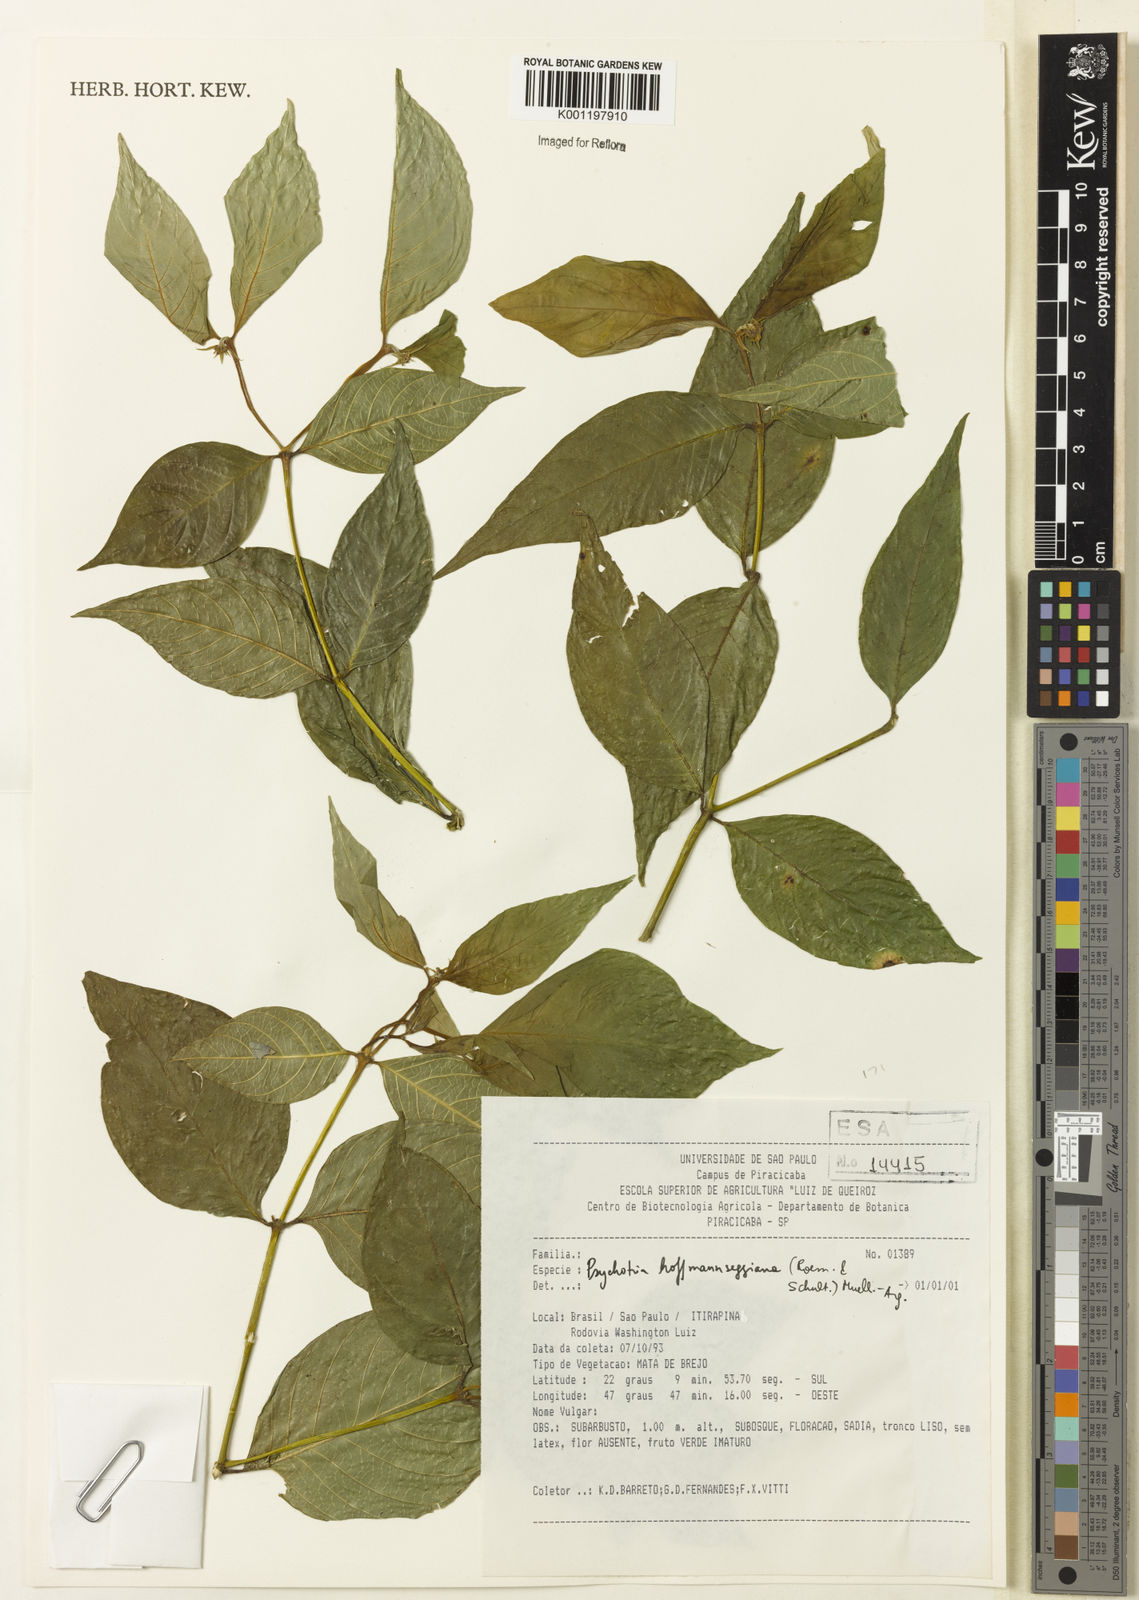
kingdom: Plantae
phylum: Tracheophyta
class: Magnoliopsida
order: Gentianales
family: Rubiaceae
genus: Psychotria
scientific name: Psychotria
